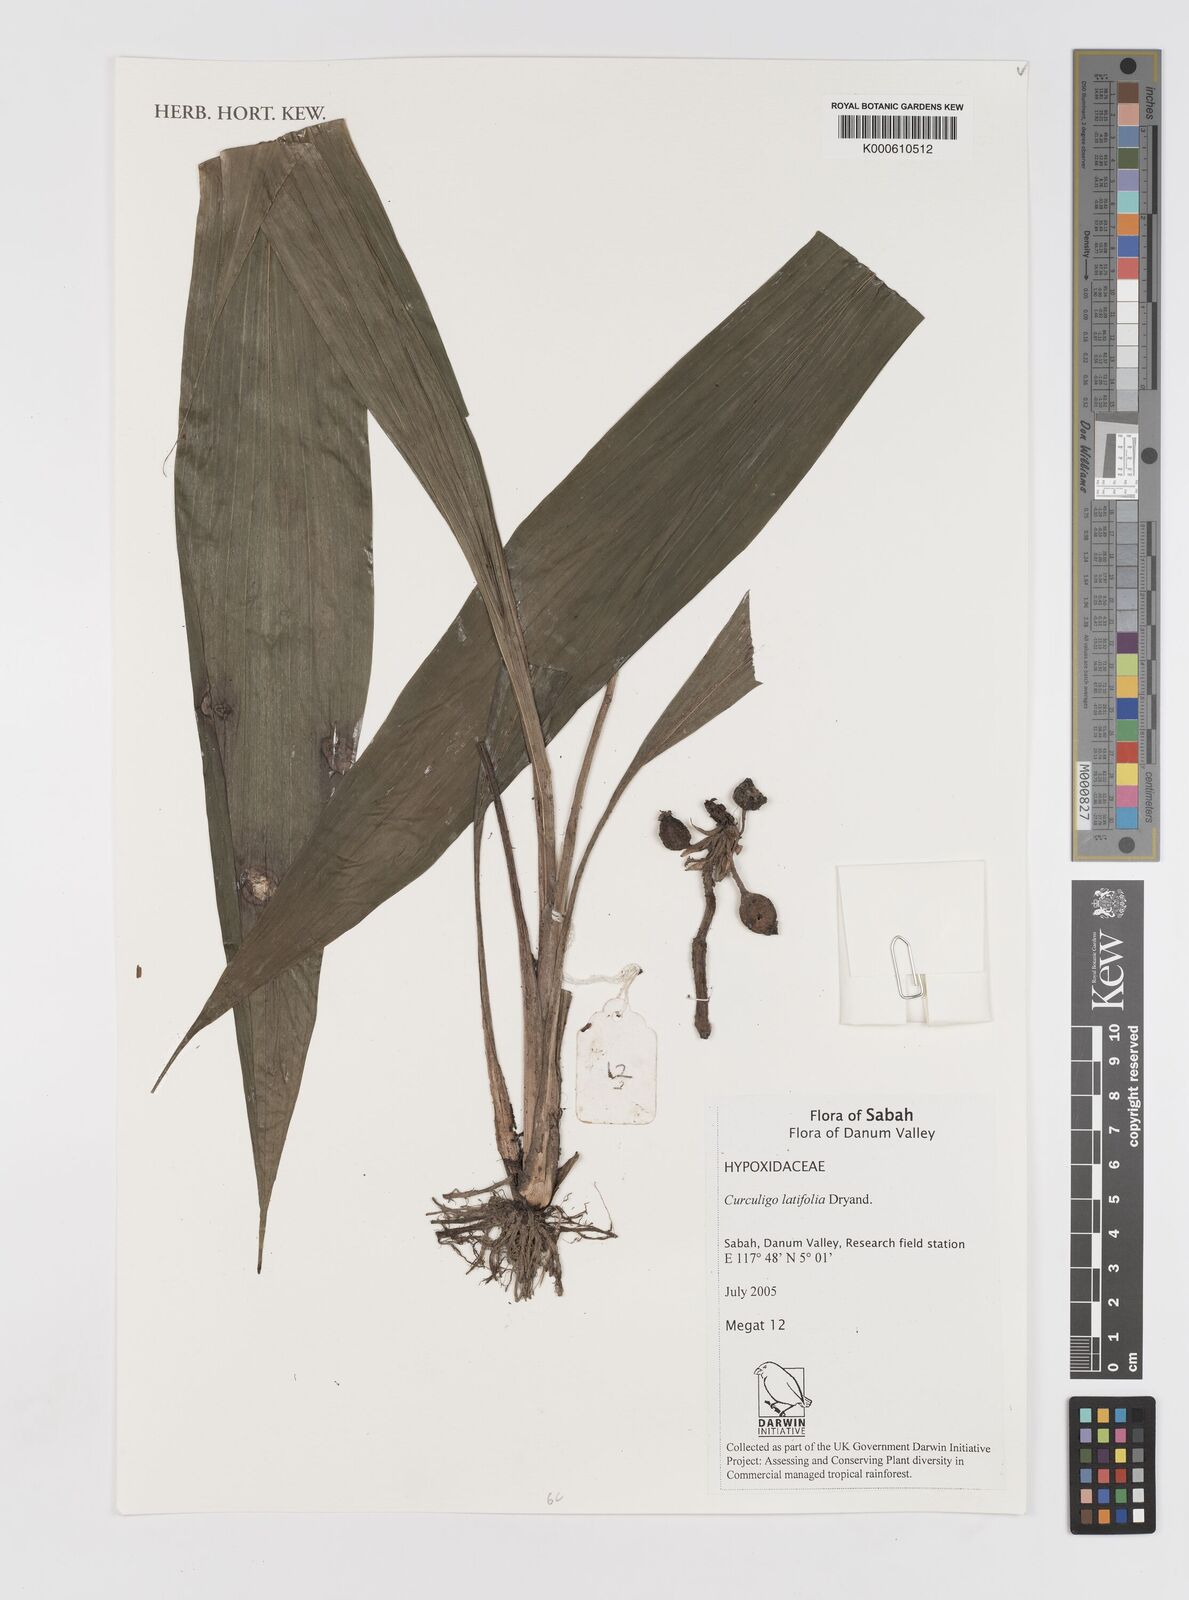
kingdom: Plantae
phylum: Tracheophyta
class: Liliopsida
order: Asparagales
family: Hypoxidaceae
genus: Curculigo
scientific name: Curculigo
